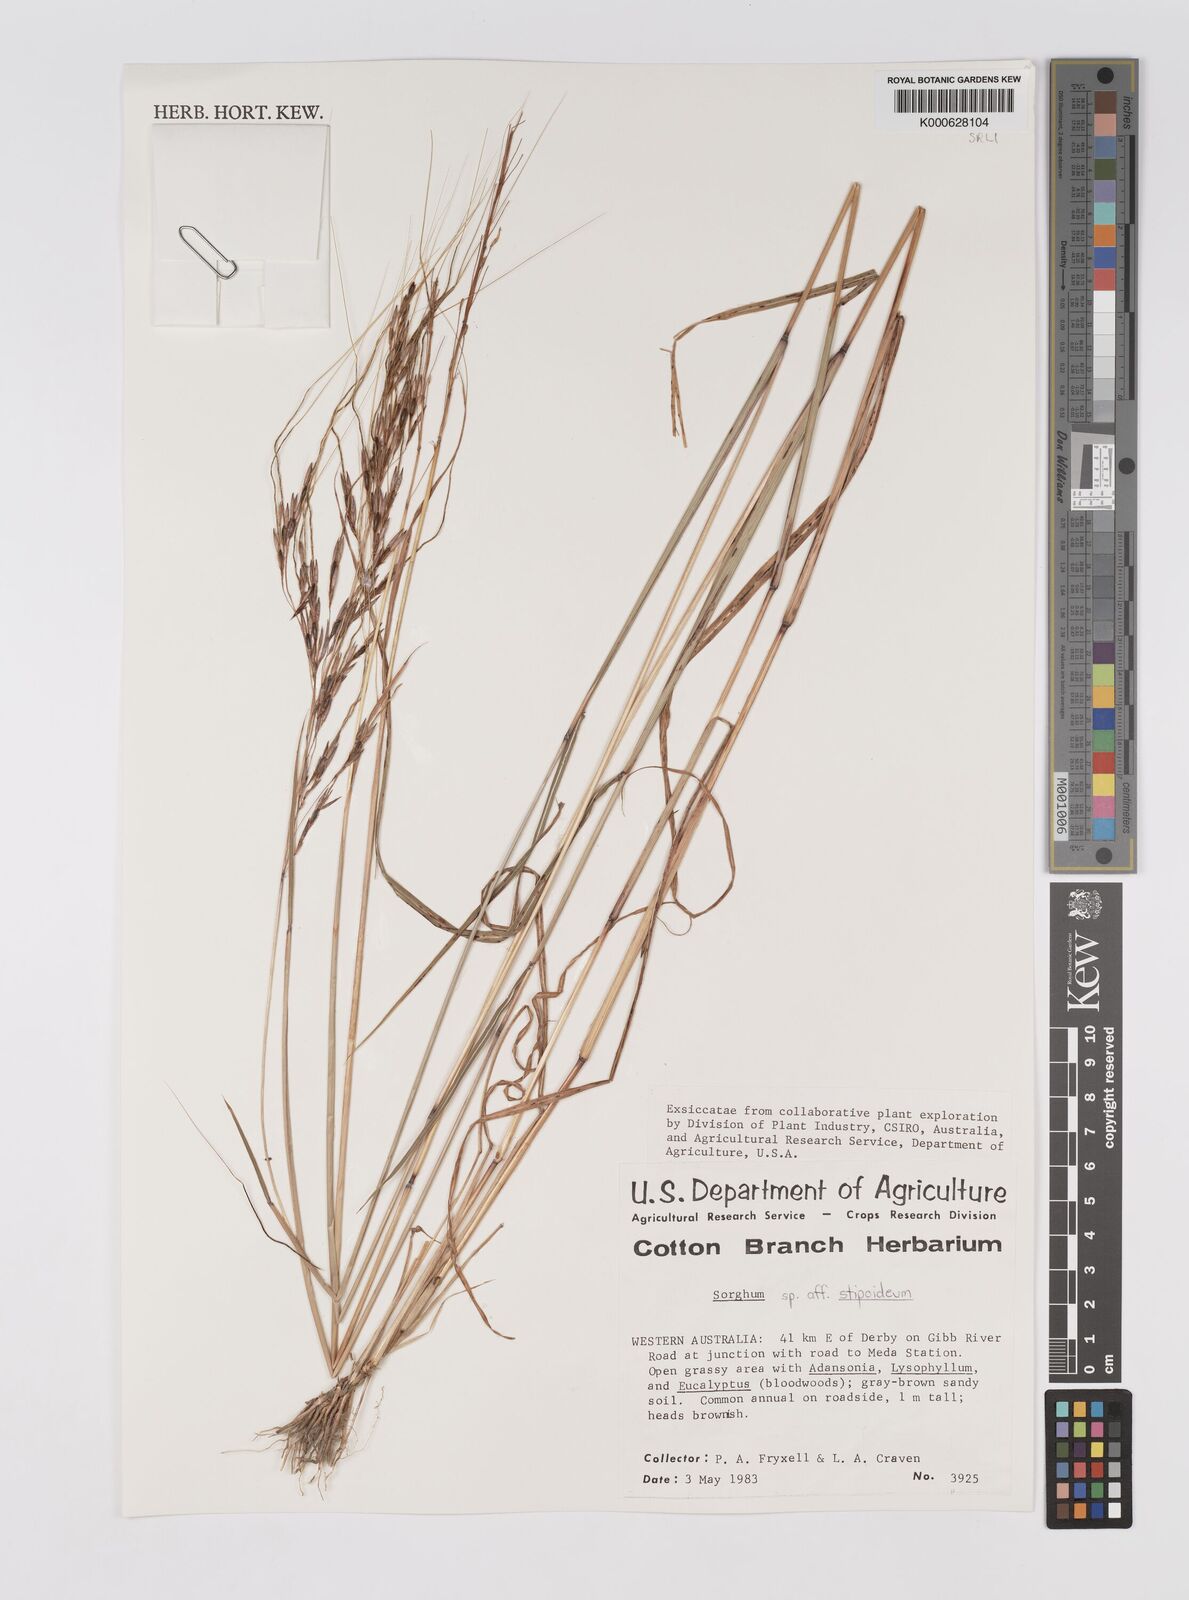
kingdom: Plantae
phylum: Tracheophyta
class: Liliopsida
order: Poales
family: Poaceae
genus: Sarga
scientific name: Sarga stipoidea
